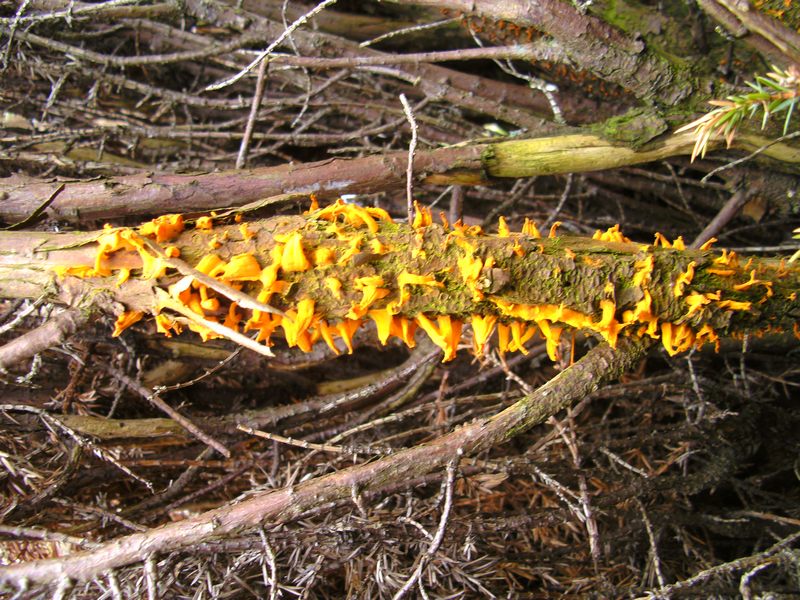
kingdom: Fungi
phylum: Basidiomycota
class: Pucciniomycetes
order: Pucciniales
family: Gymnosporangiaceae
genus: Gymnosporangium
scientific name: Gymnosporangium clavariiforme
